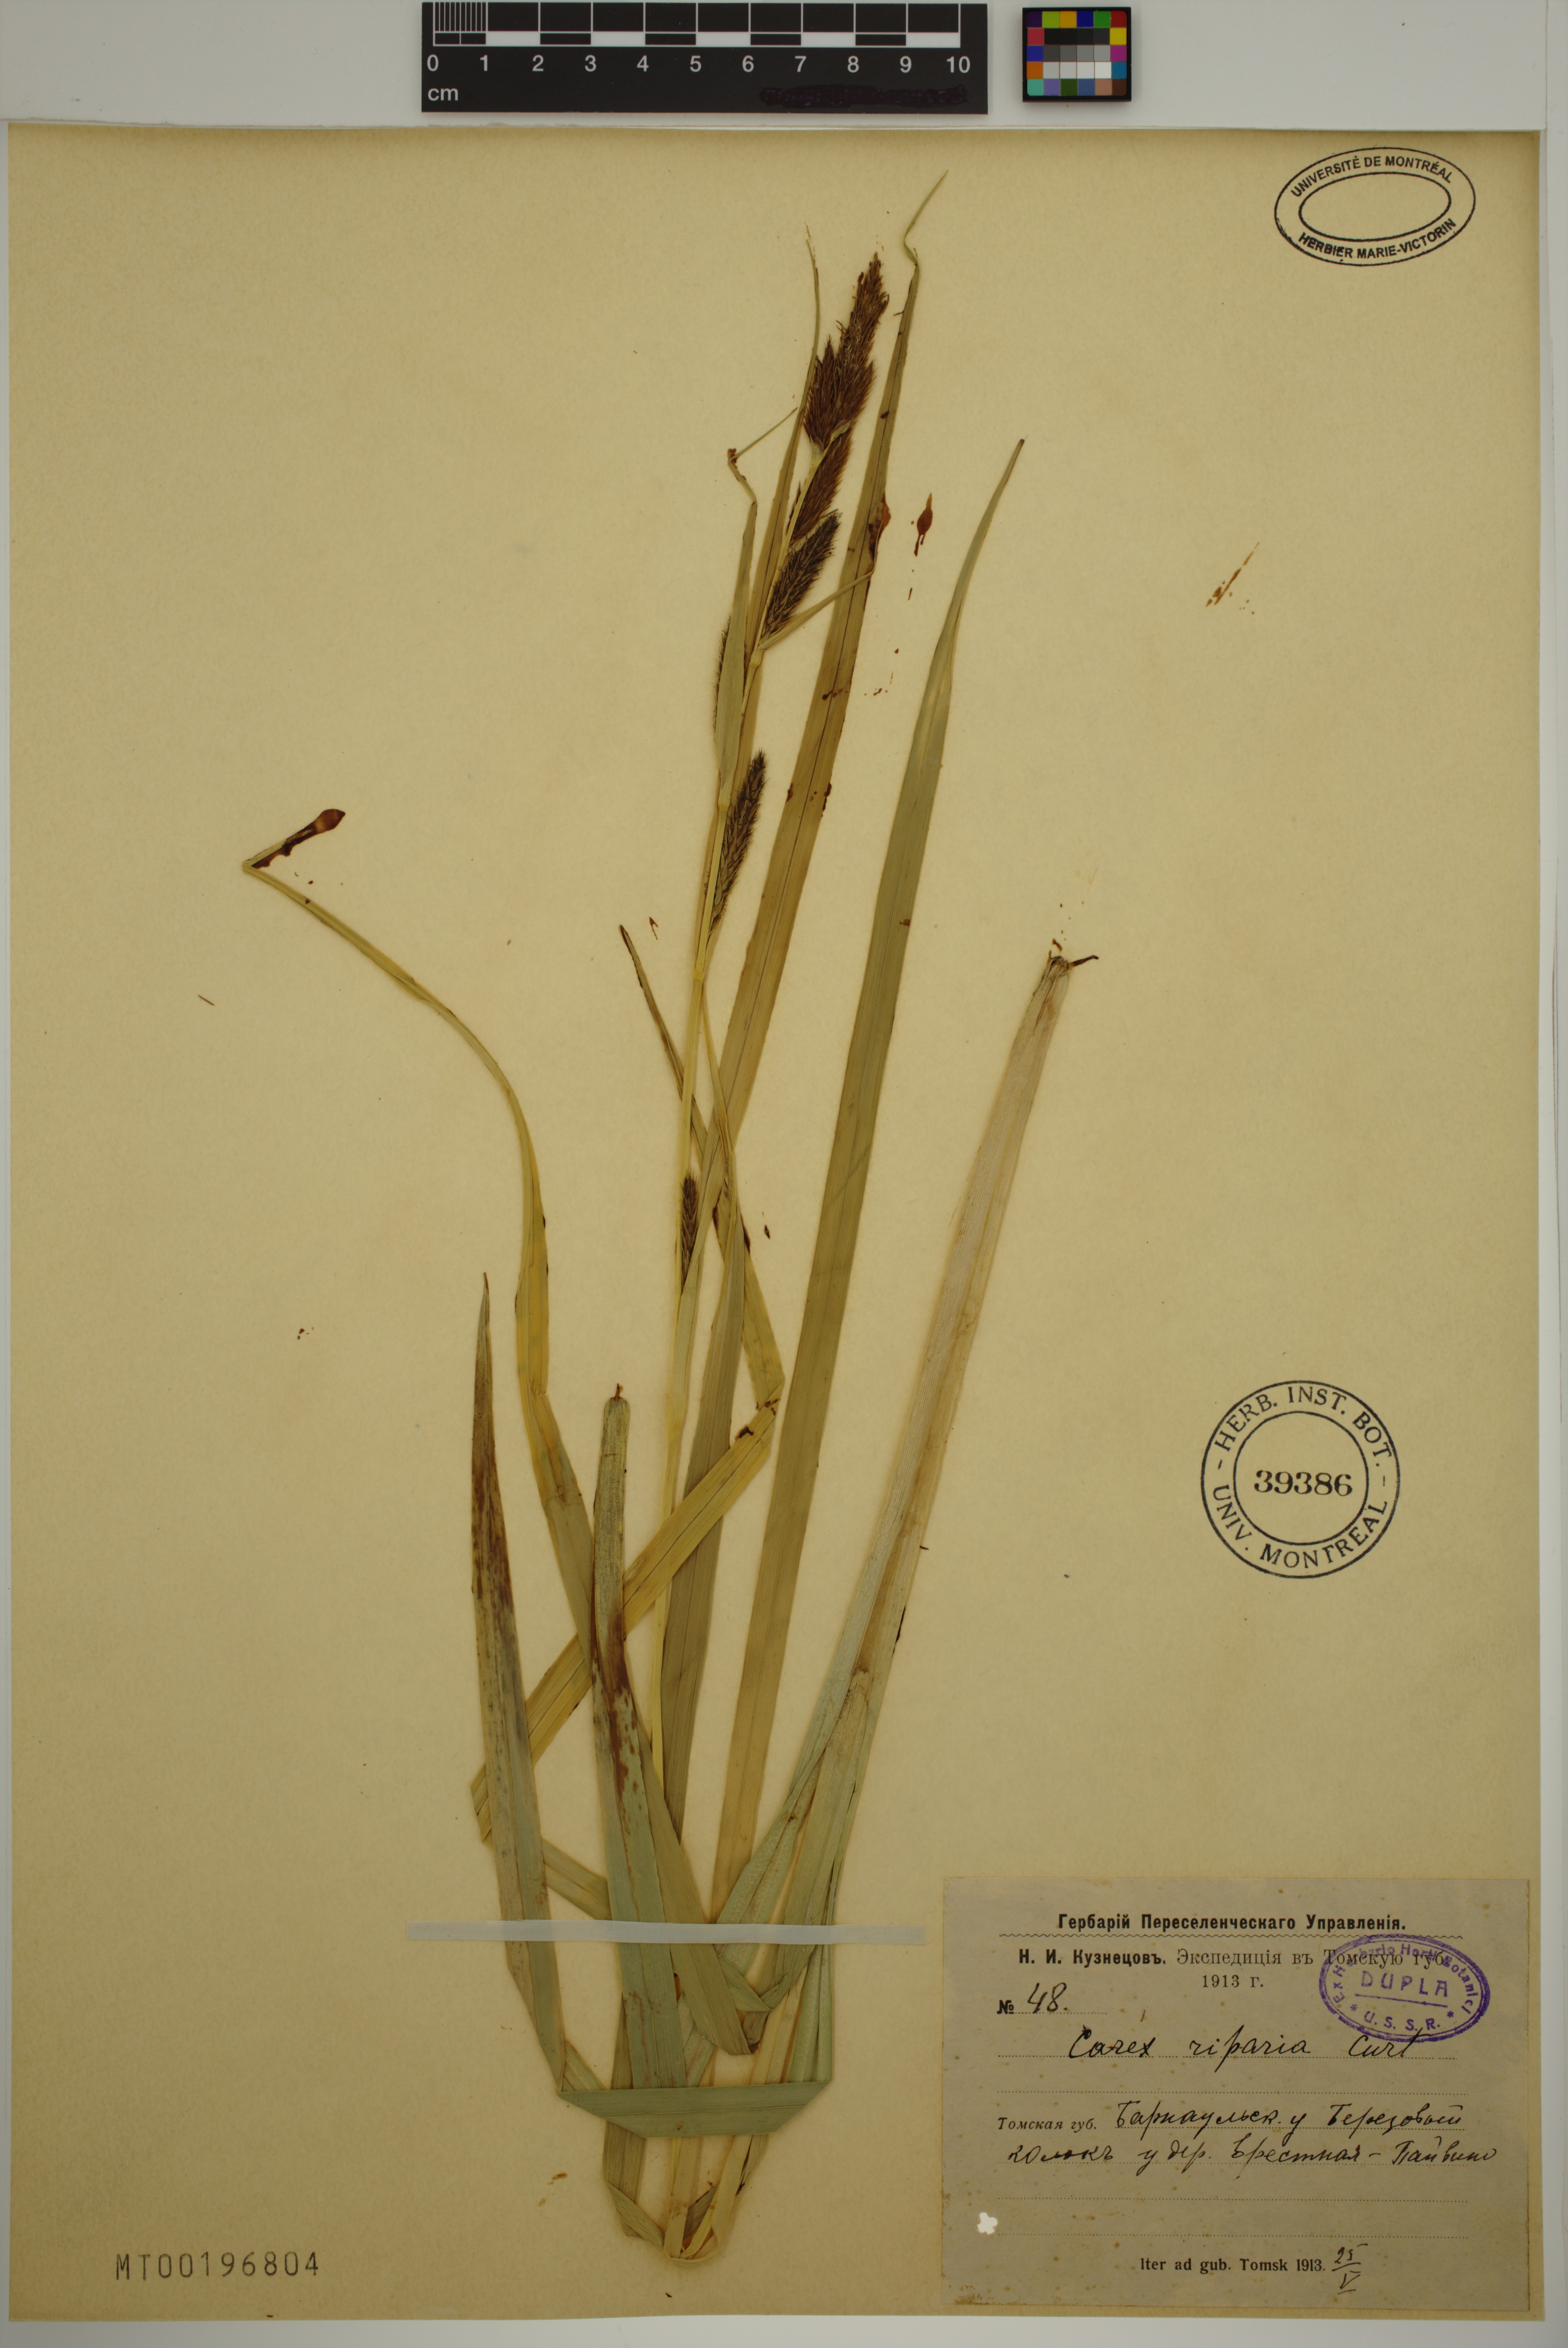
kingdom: Plantae
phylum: Tracheophyta
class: Liliopsida
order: Poales
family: Cyperaceae
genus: Carex
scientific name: Carex riparia
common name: Greater pond-sedge
